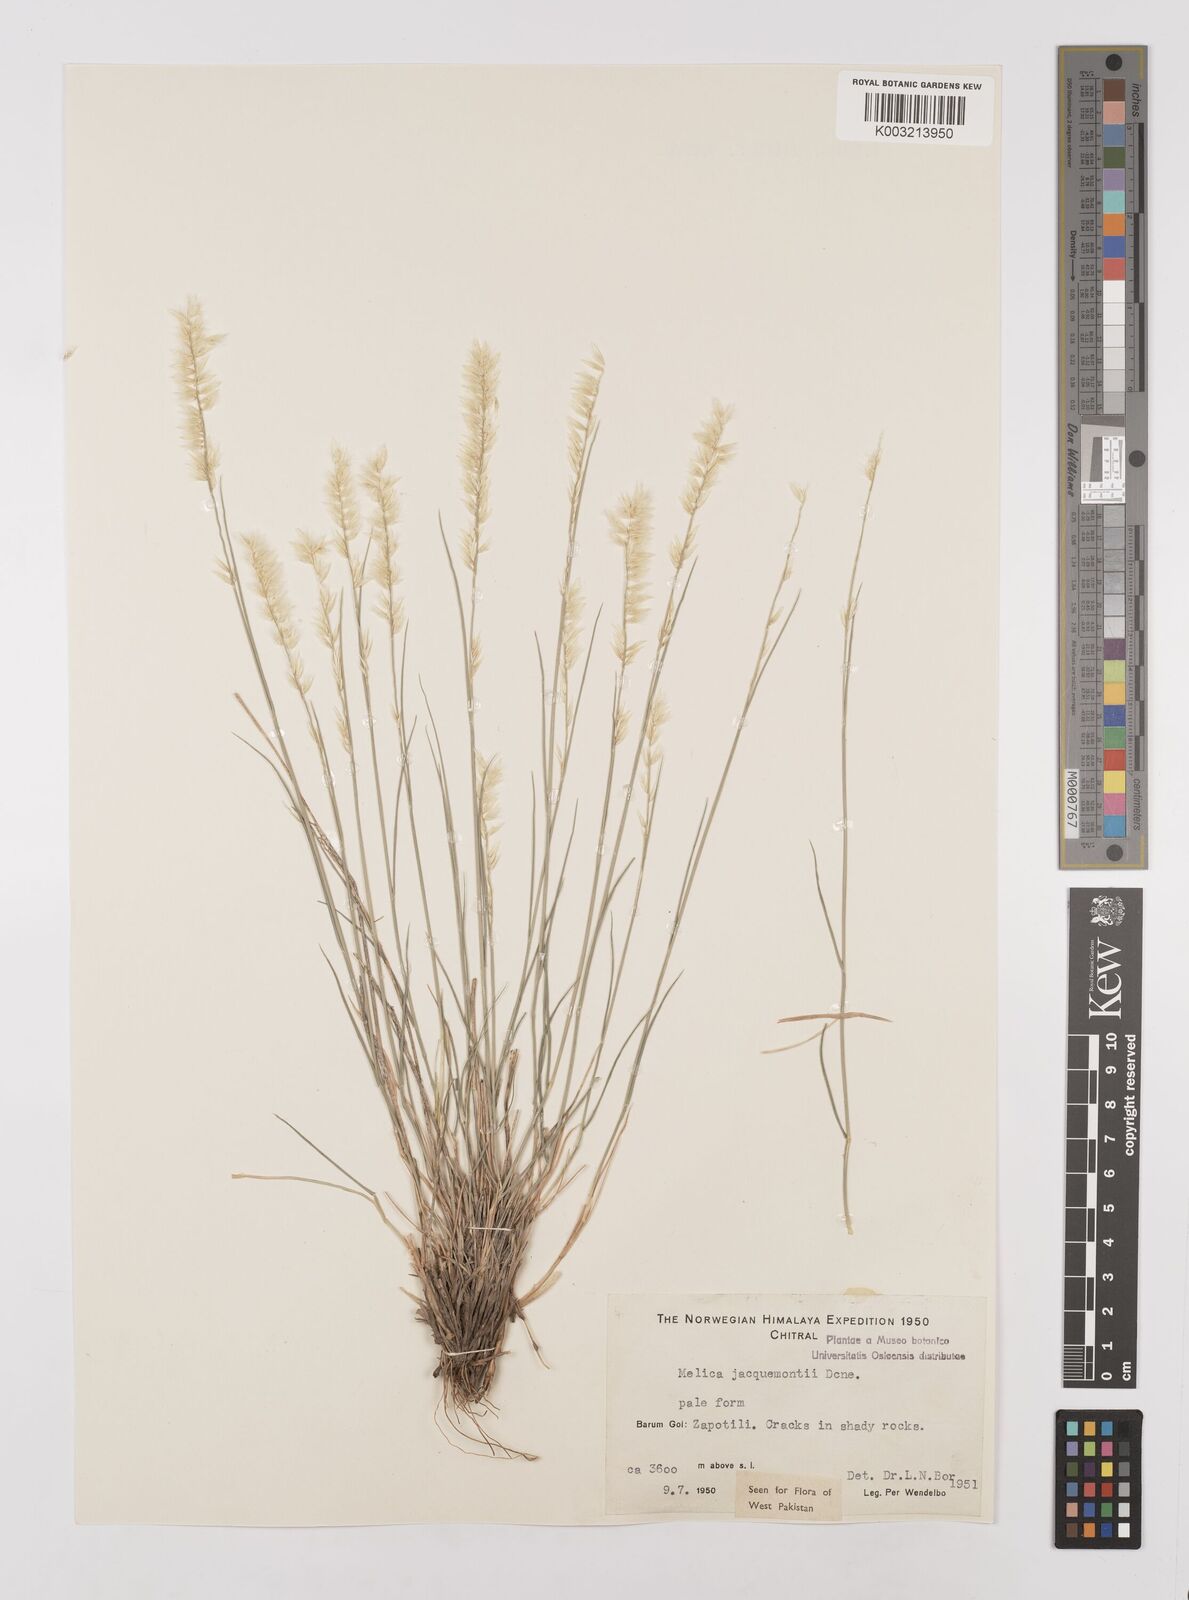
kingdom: Plantae
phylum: Tracheophyta
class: Liliopsida
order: Poales
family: Poaceae
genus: Melica
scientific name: Melica persica
